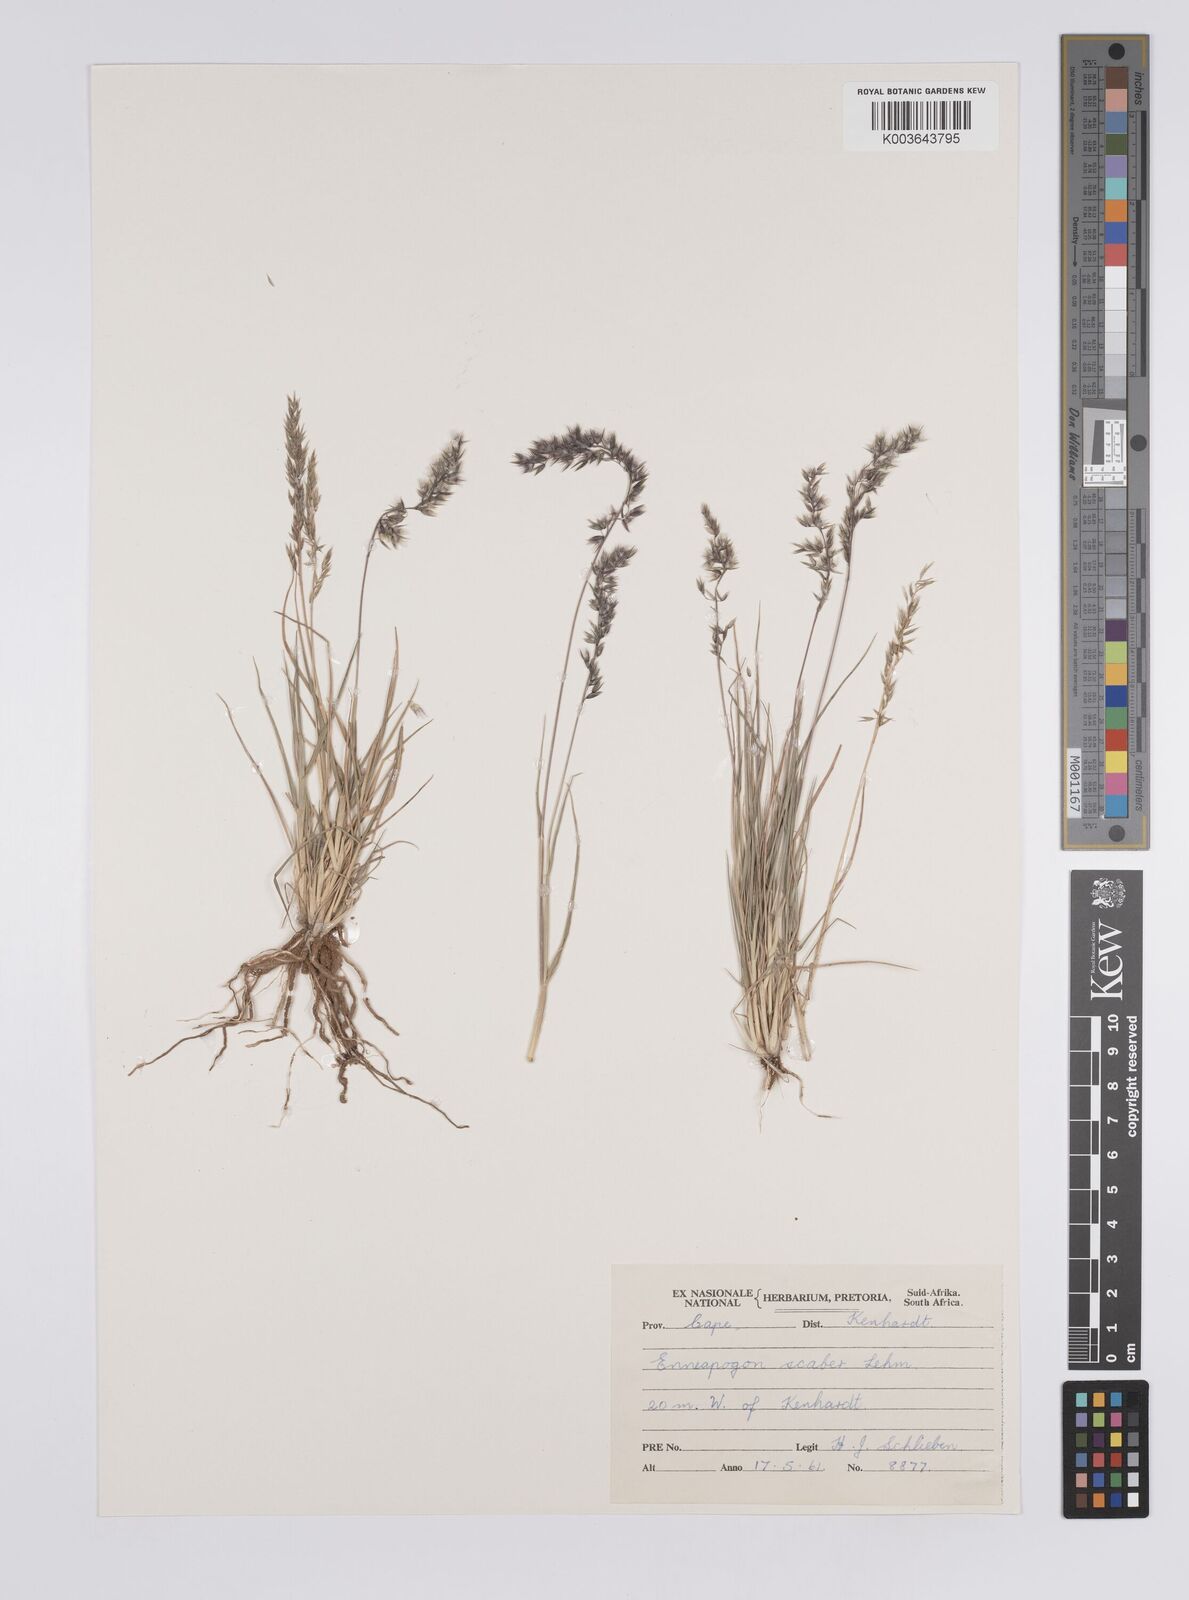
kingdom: Plantae
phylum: Tracheophyta
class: Liliopsida
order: Poales
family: Poaceae
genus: Enneapogon
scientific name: Enneapogon scaber
